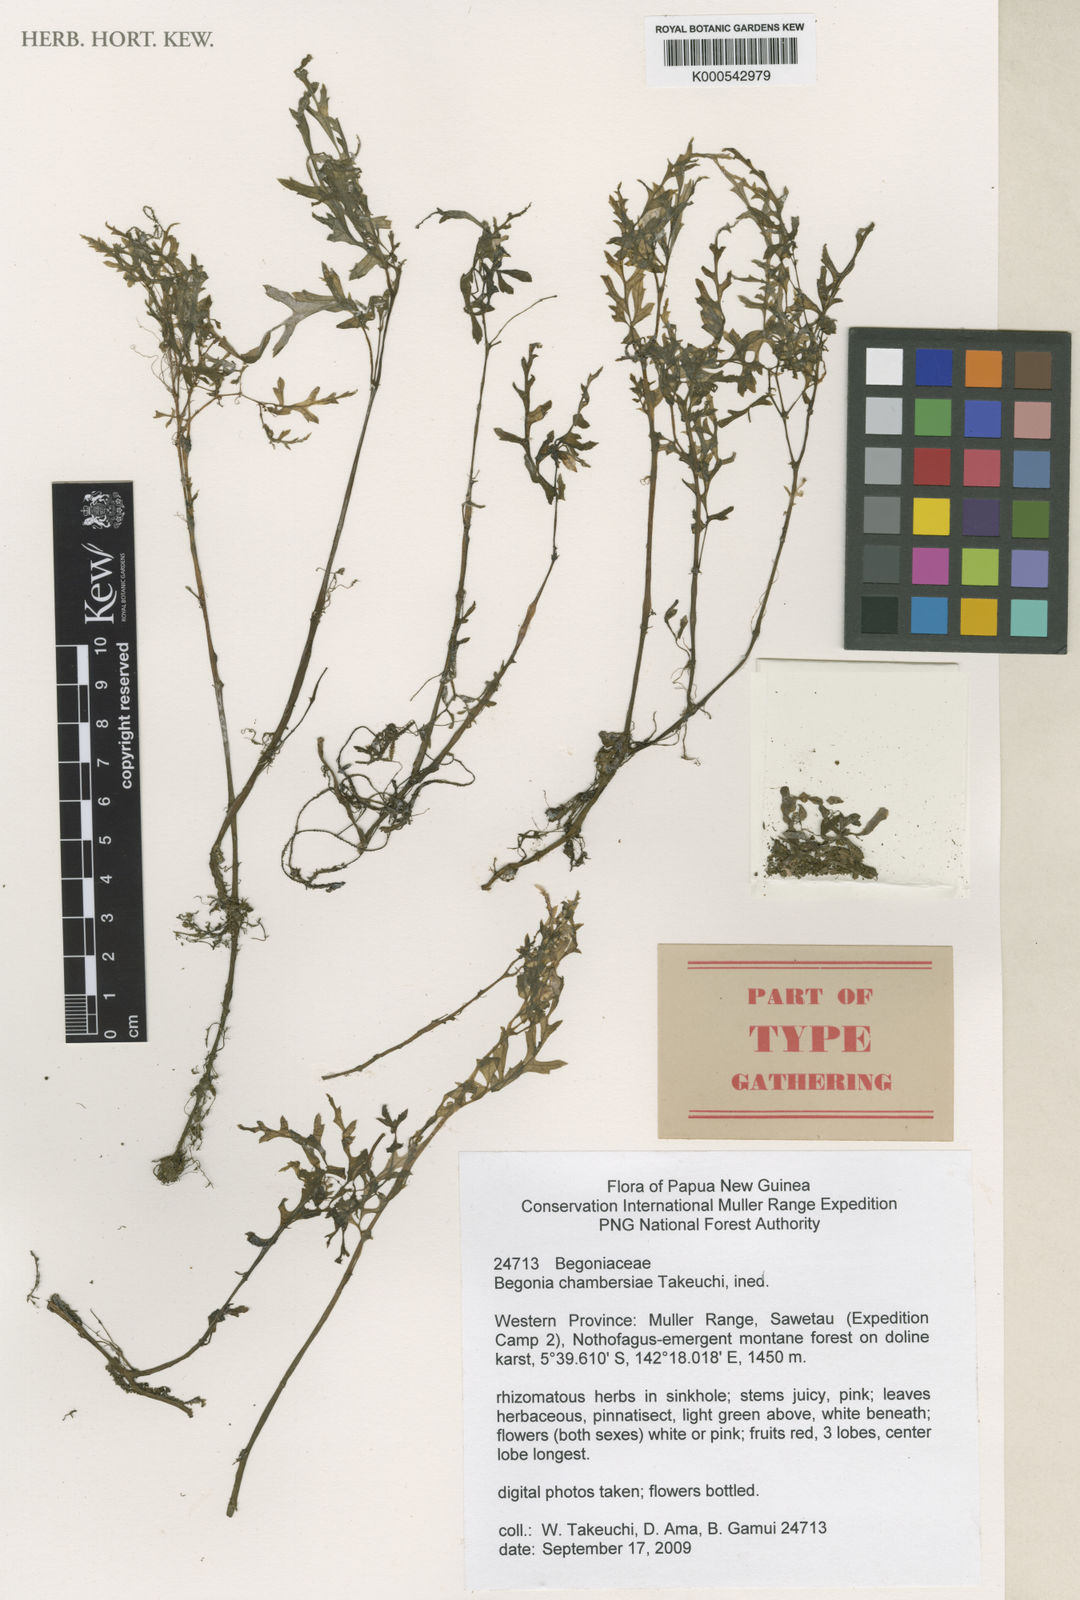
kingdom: Plantae
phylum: Tracheophyta
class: Magnoliopsida
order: Cucurbitales
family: Begoniaceae
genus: Begonia
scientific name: Begonia chambersiae
